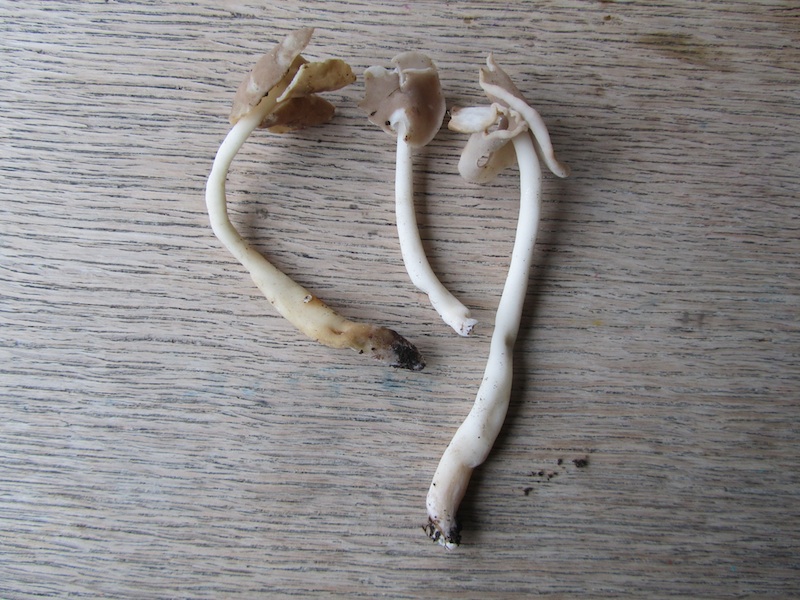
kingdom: Fungi
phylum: Ascomycota
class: Pezizomycetes
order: Pezizales
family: Helvellaceae
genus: Helvella
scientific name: Helvella
